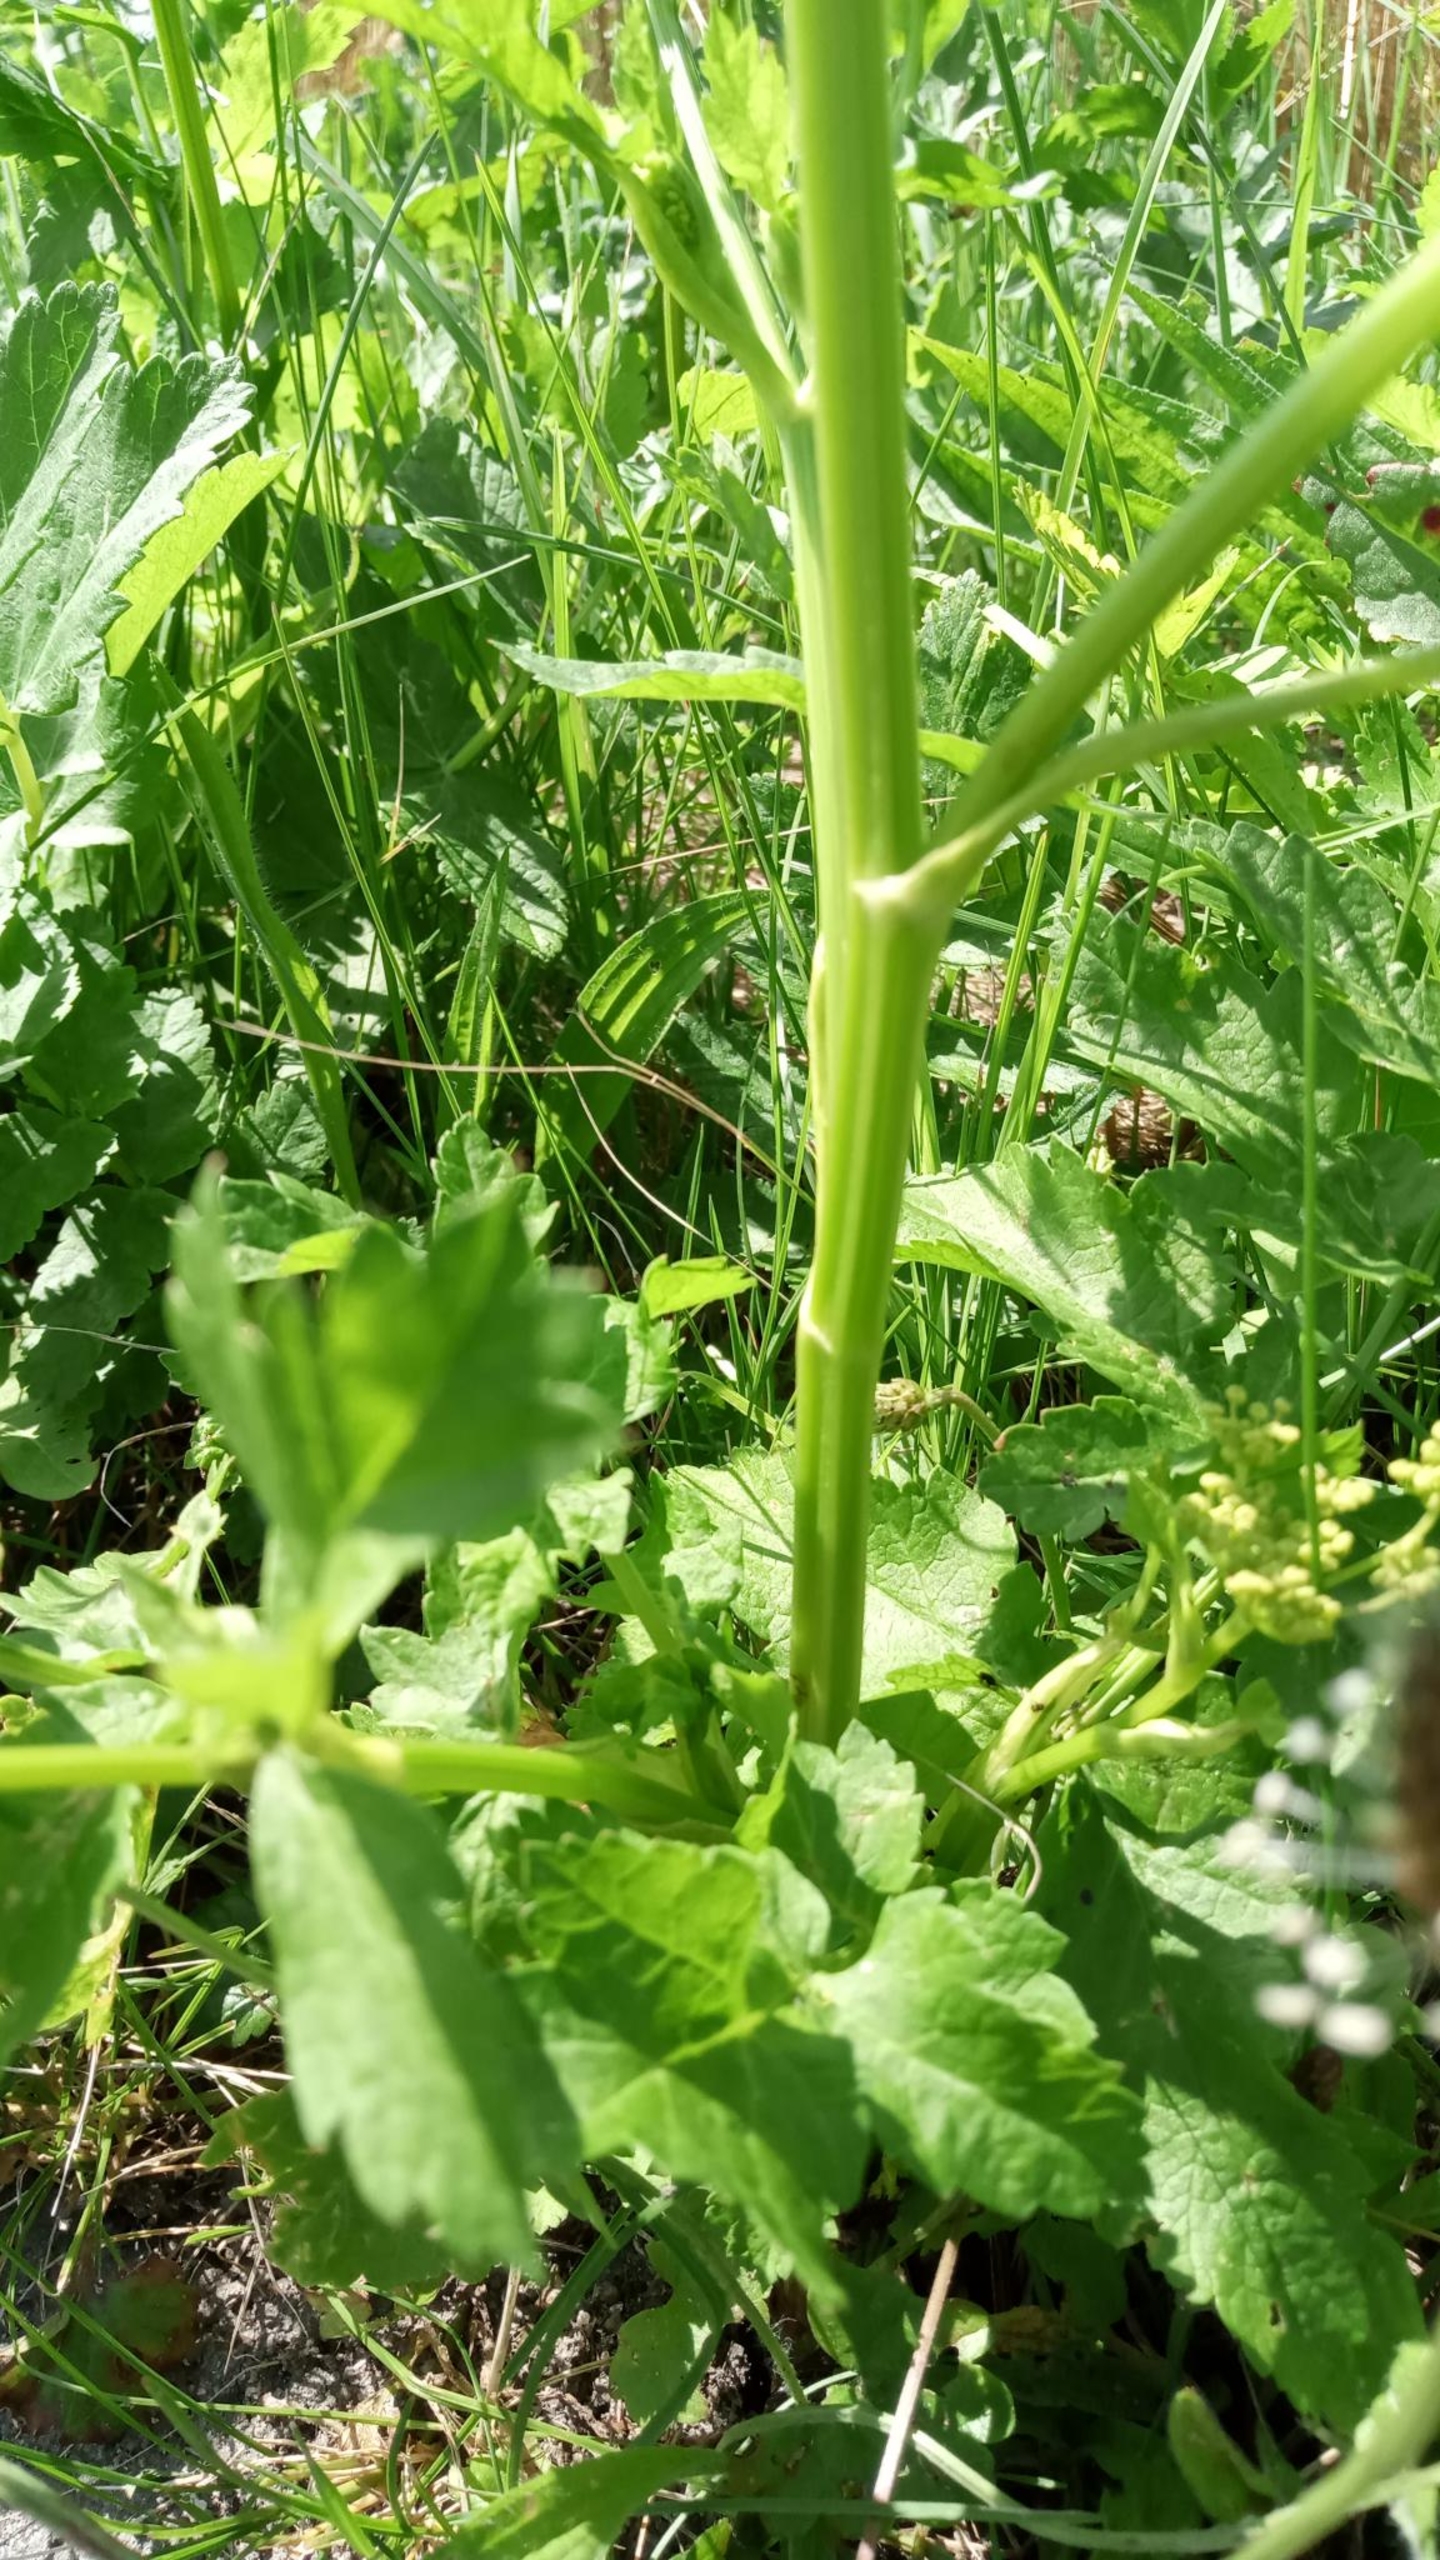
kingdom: Plantae
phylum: Tracheophyta
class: Magnoliopsida
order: Apiales
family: Apiaceae
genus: Pastinaca
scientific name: Pastinaca sativa
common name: Pastinak
